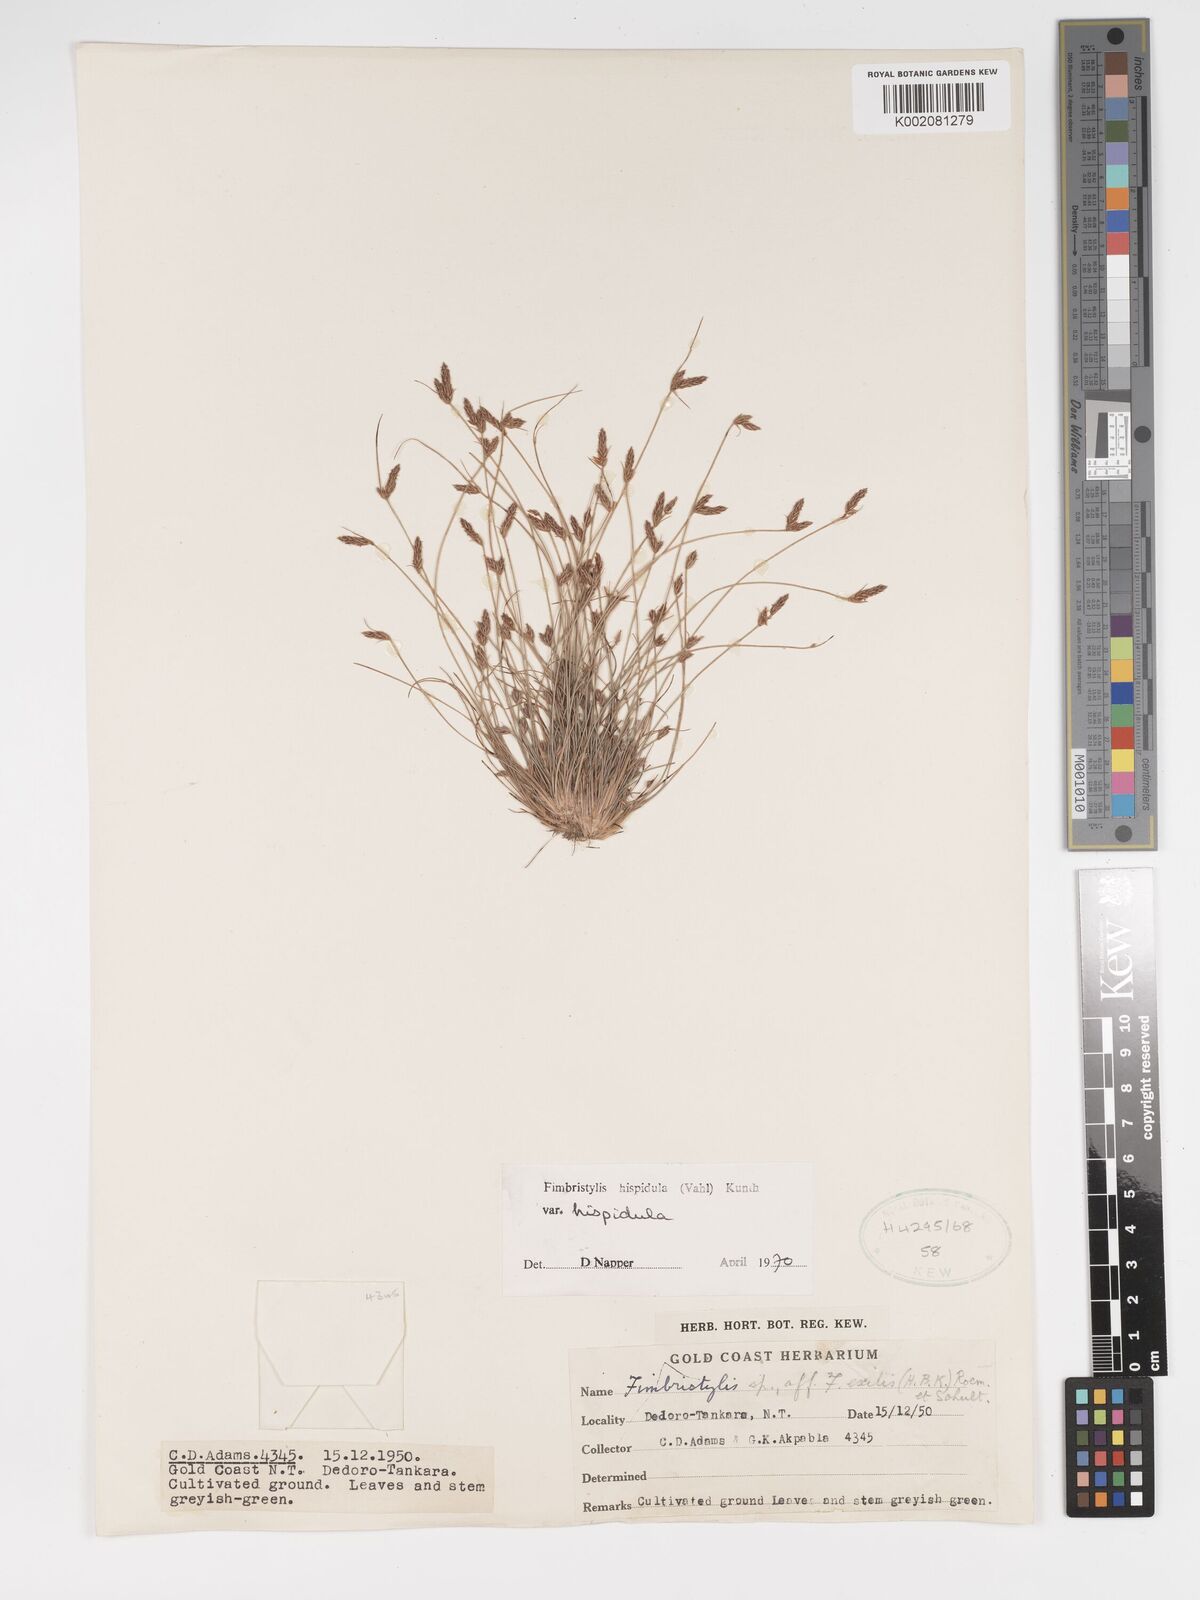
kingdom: Plantae
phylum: Tracheophyta
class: Liliopsida
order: Poales
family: Cyperaceae
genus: Bulbostylis
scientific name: Bulbostylis hispidula
